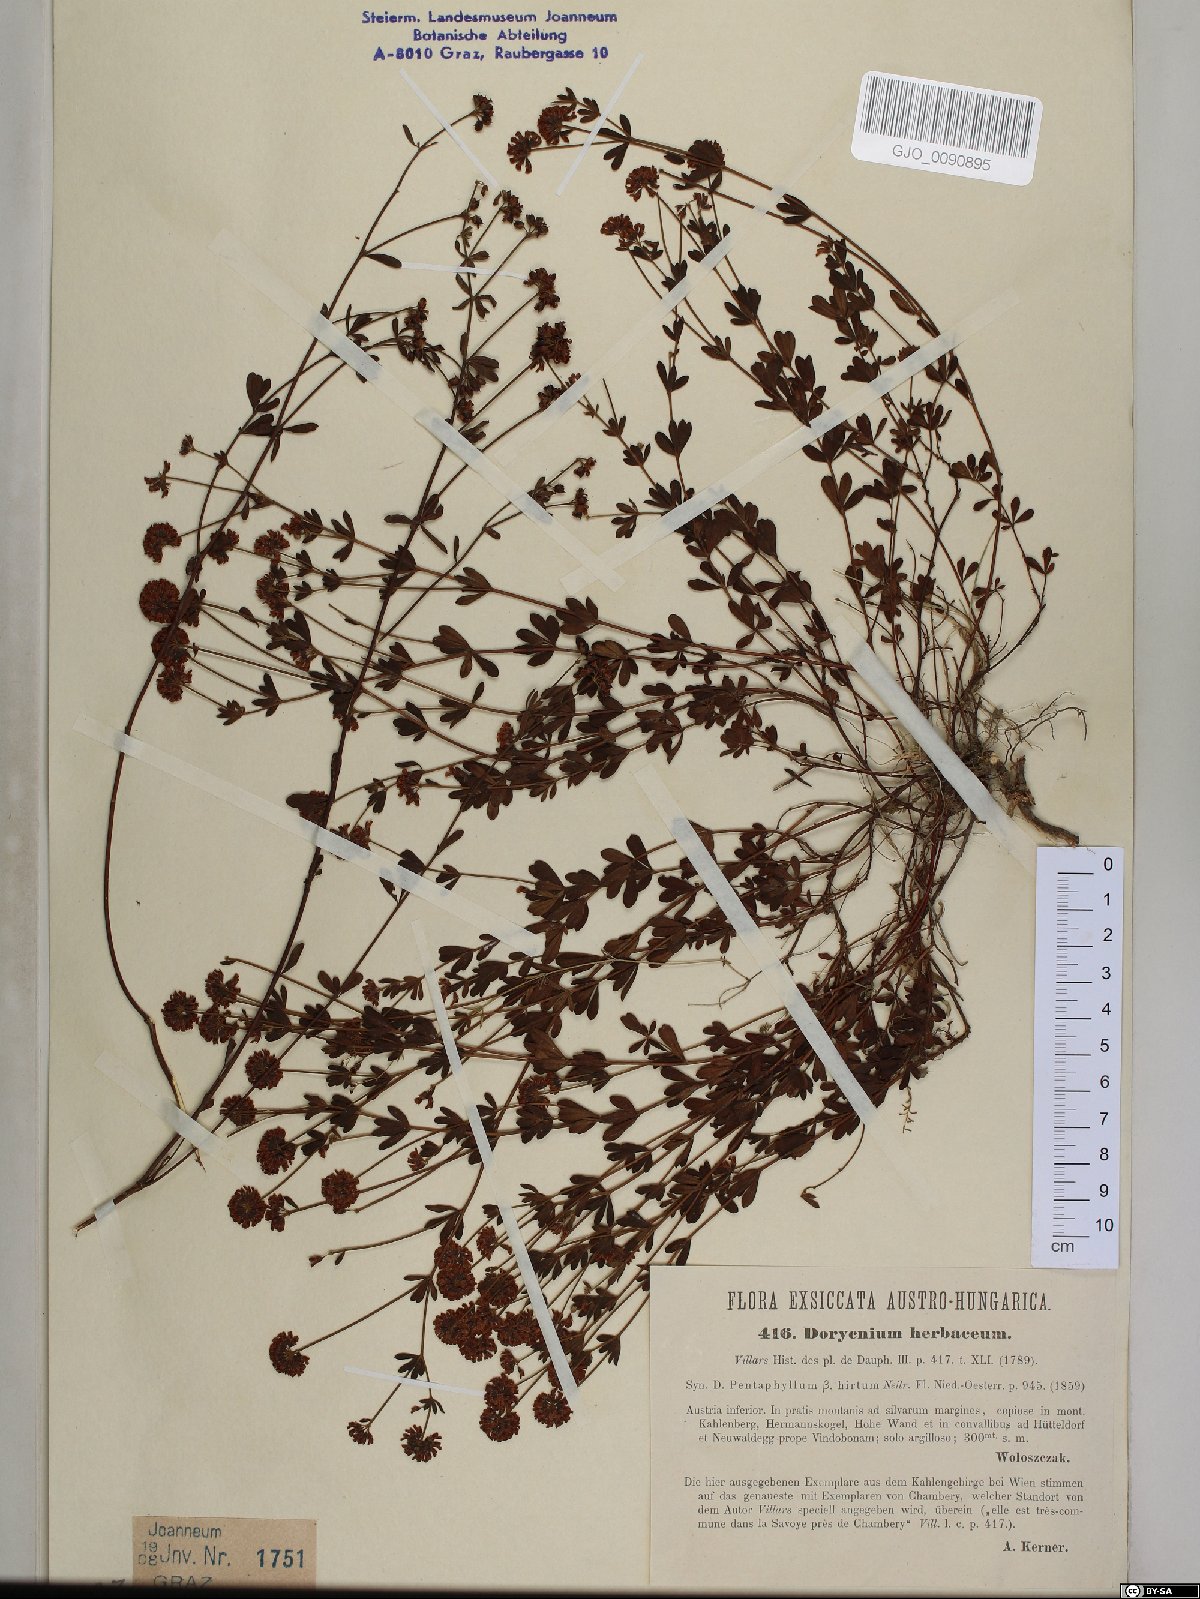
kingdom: Plantae
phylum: Tracheophyta
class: Magnoliopsida
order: Fabales
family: Fabaceae
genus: Lotus
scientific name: Lotus herbaceus
